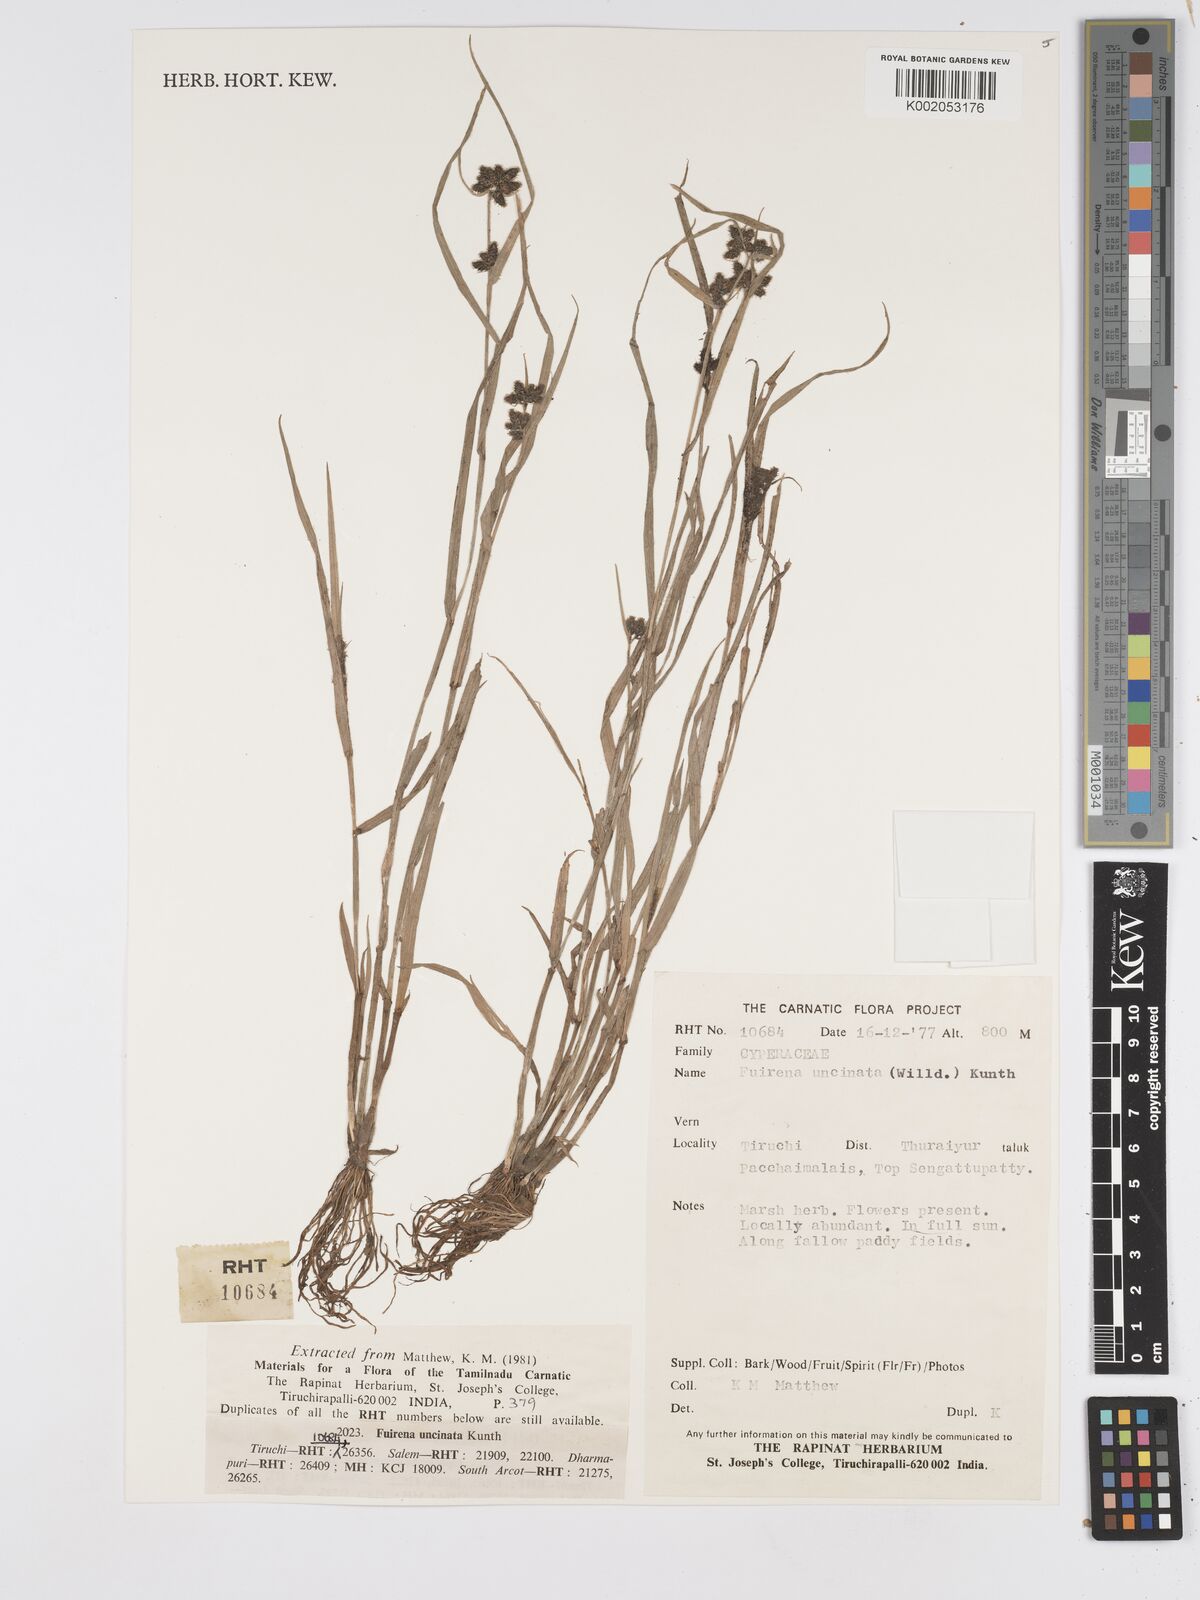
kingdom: Plantae
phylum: Tracheophyta
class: Liliopsida
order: Poales
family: Cyperaceae
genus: Fuirena
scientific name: Fuirena uncinata
